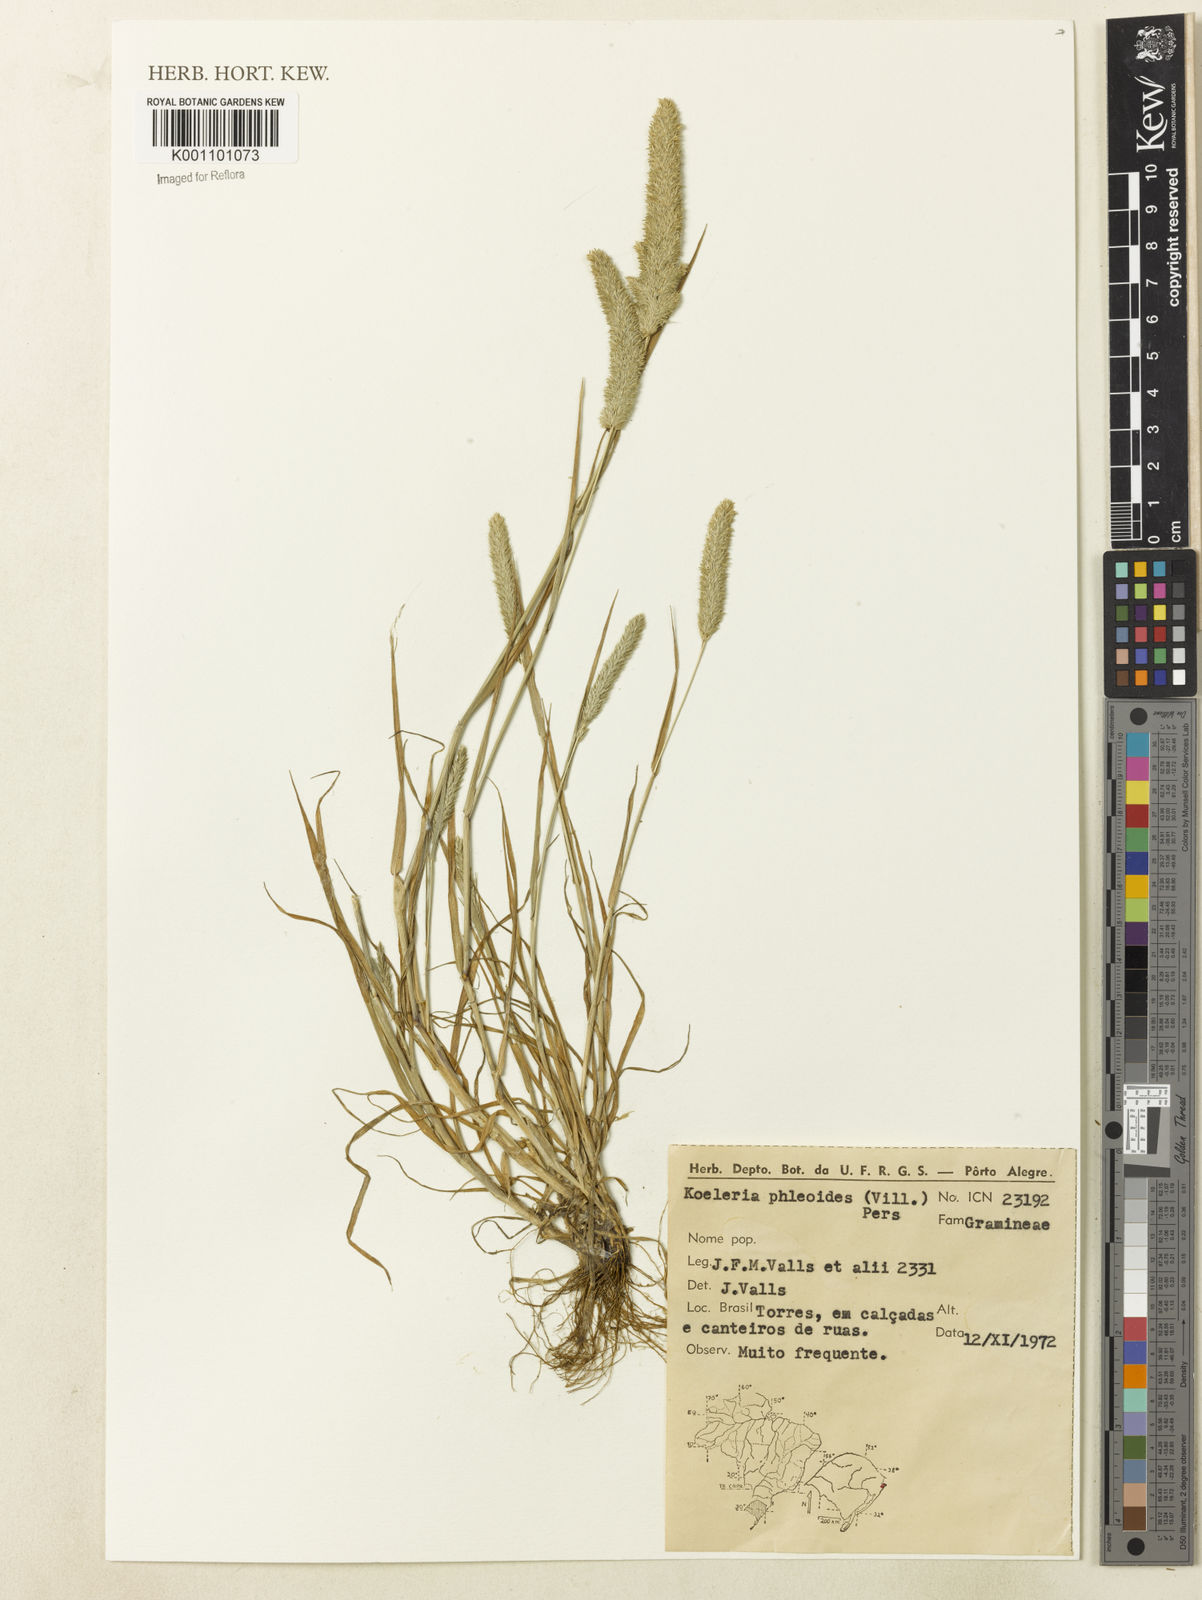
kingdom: Plantae
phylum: Tracheophyta
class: Liliopsida
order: Poales
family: Poaceae
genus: Rostraria
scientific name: Rostraria cristata
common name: Mediterranean hair-grass
